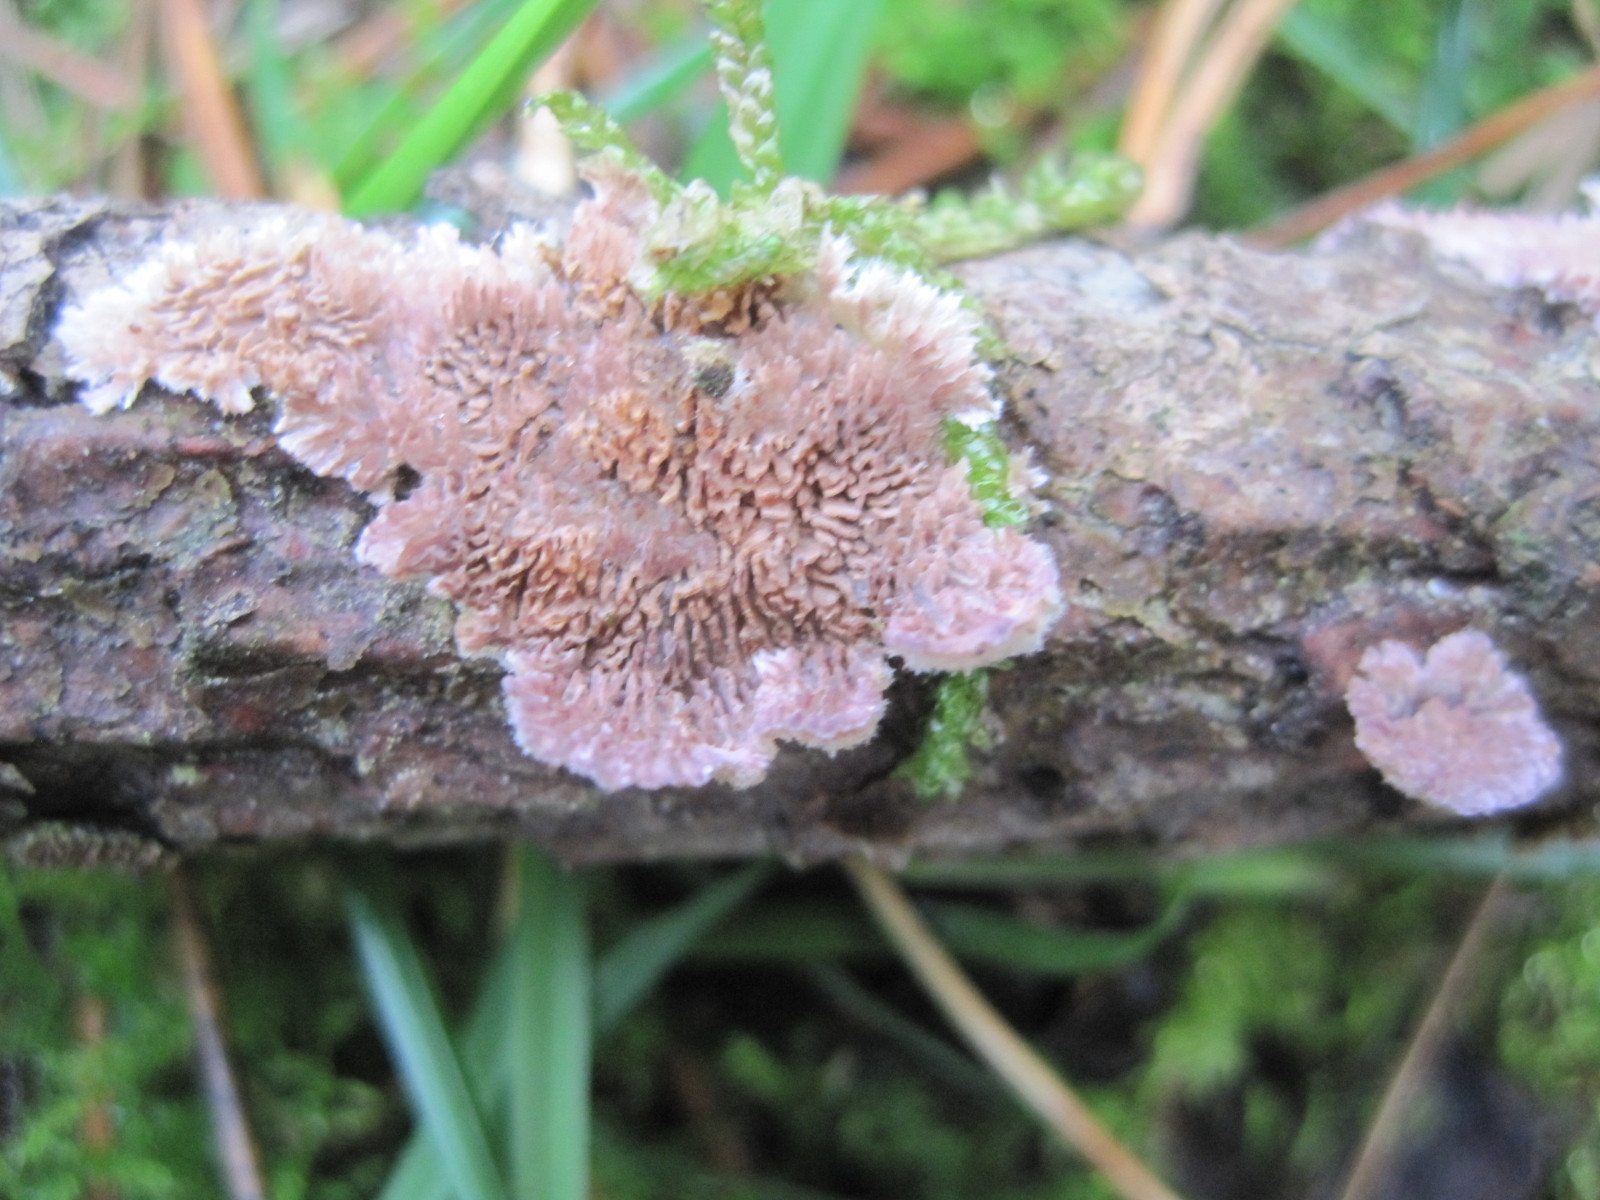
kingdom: Fungi
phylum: Basidiomycota
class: Agaricomycetes
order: Hymenochaetales
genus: Trichaptum
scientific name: Trichaptum fuscoviolaceum
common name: tandet violporesvamp
